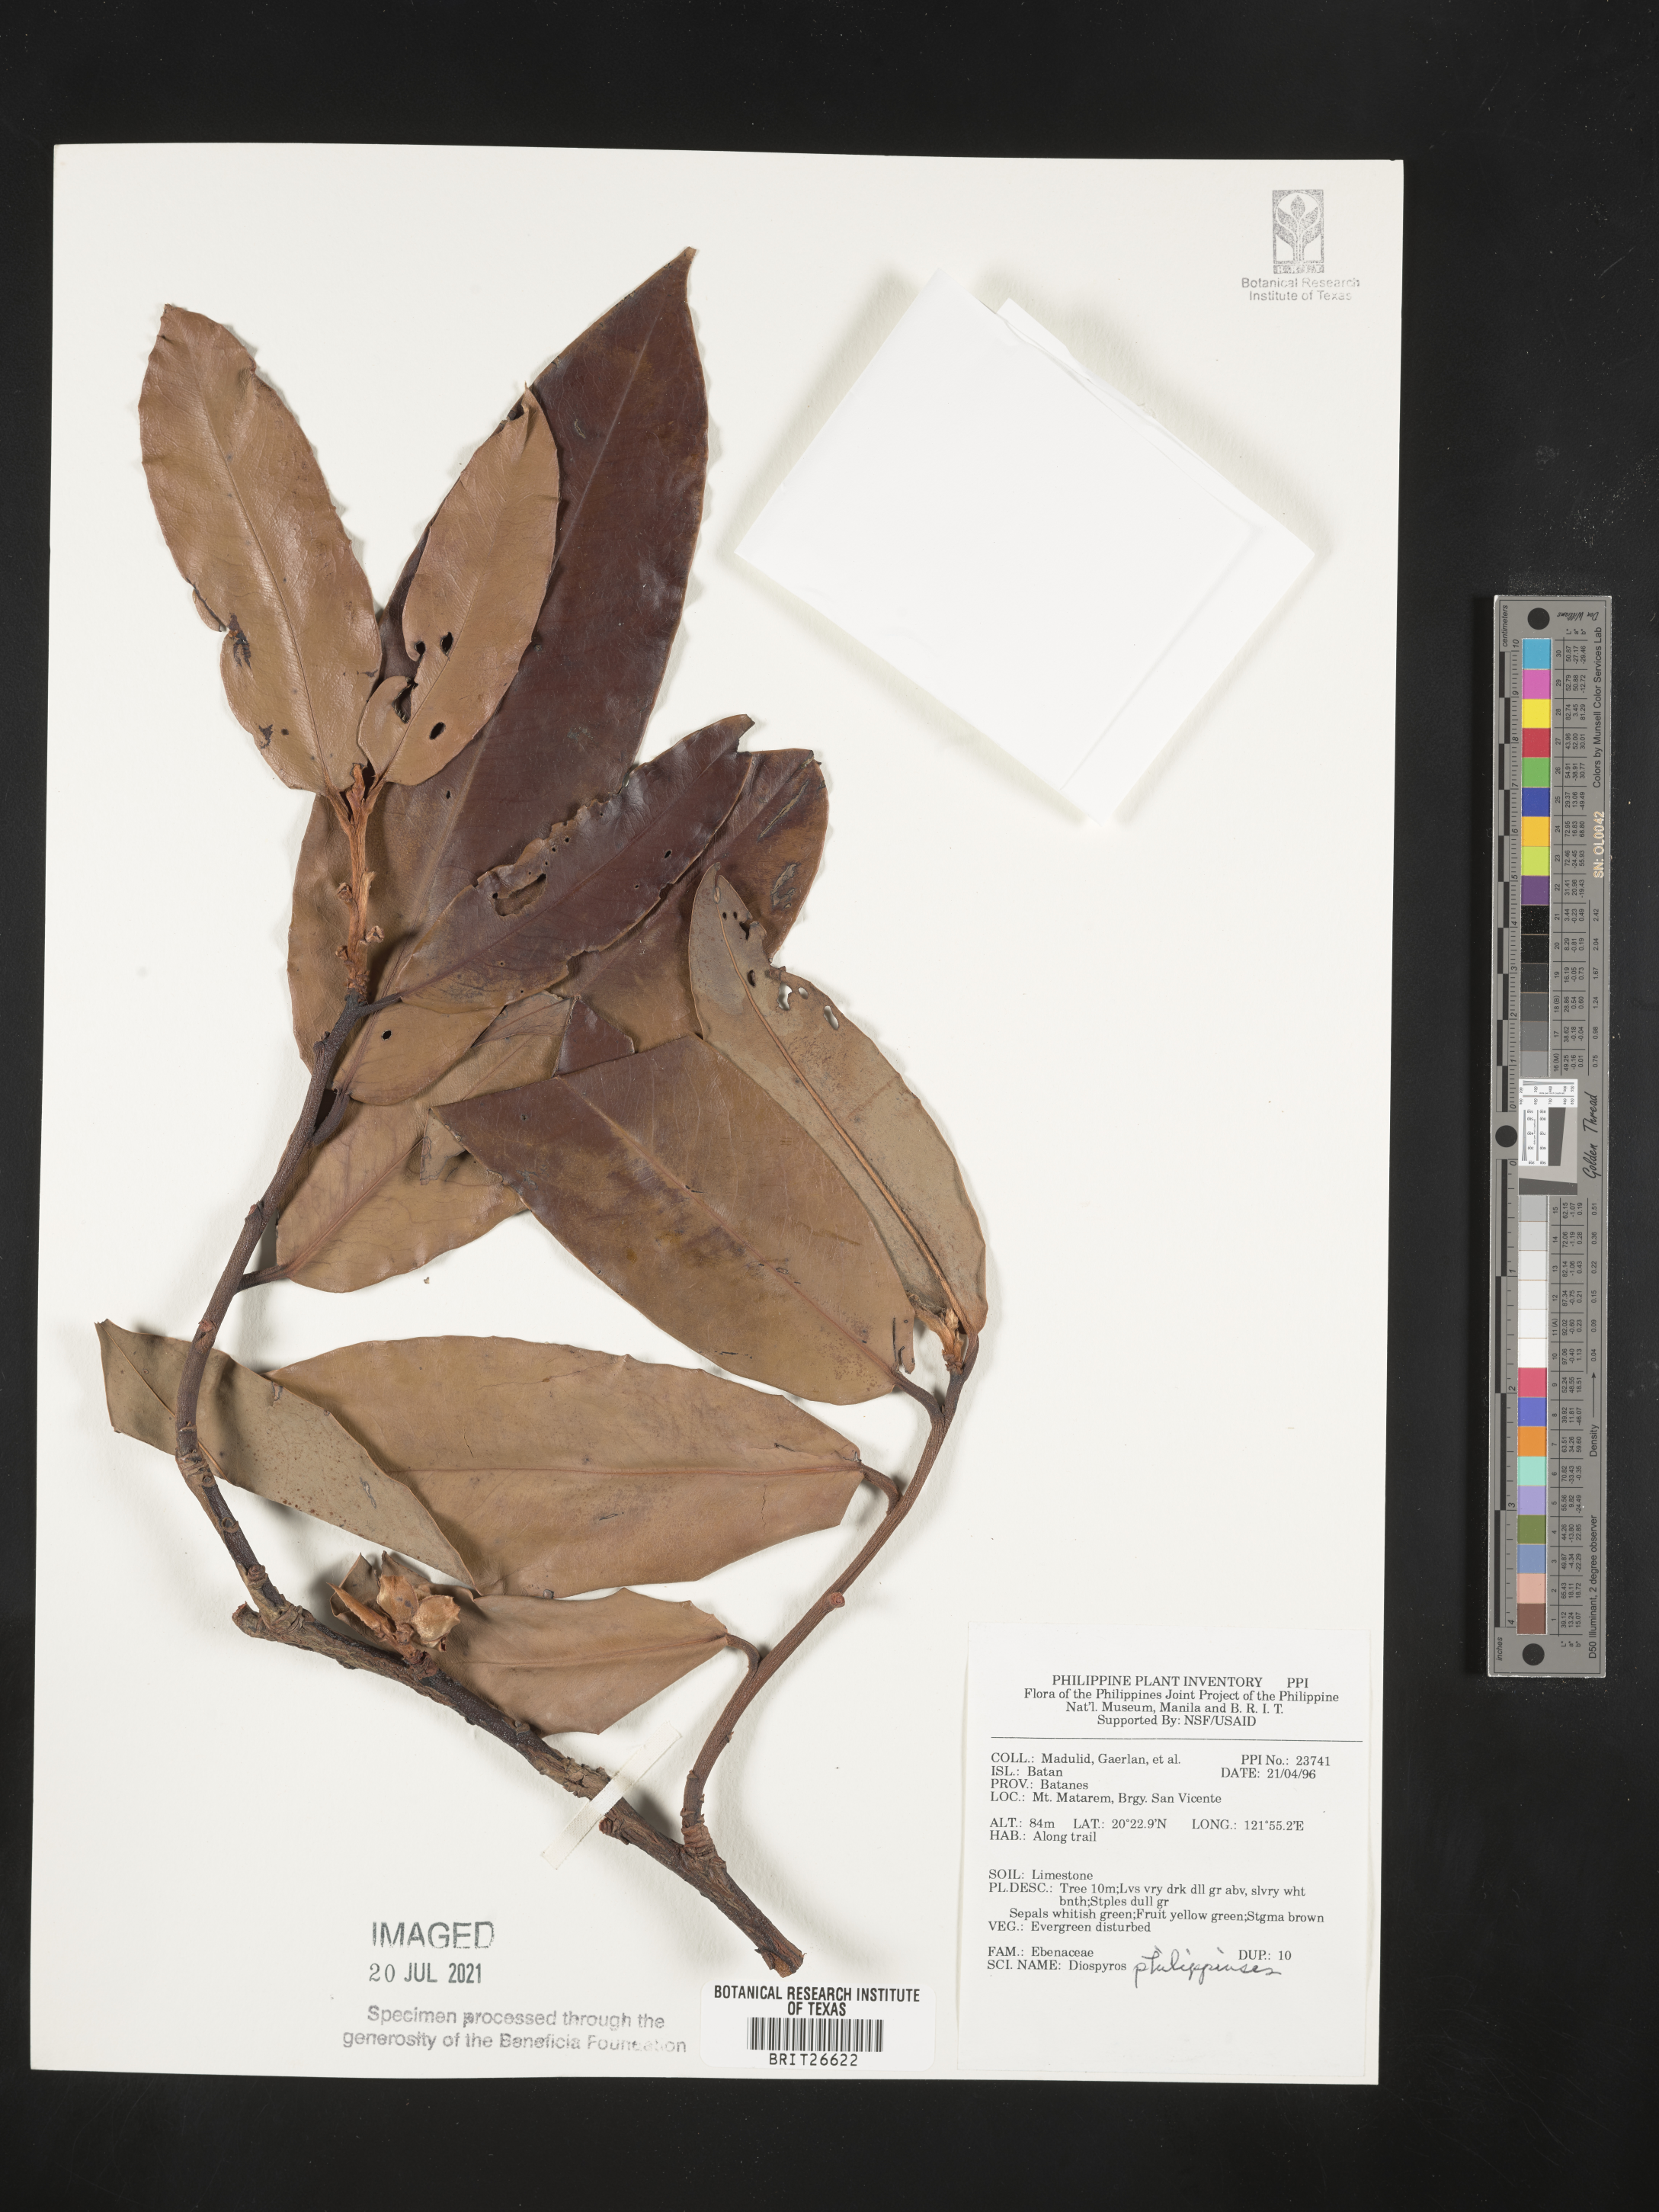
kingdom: Plantae
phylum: Tracheophyta
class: Magnoliopsida
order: Ericales
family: Ebenaceae
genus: Diospyros
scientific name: Diospyros philippinensis
